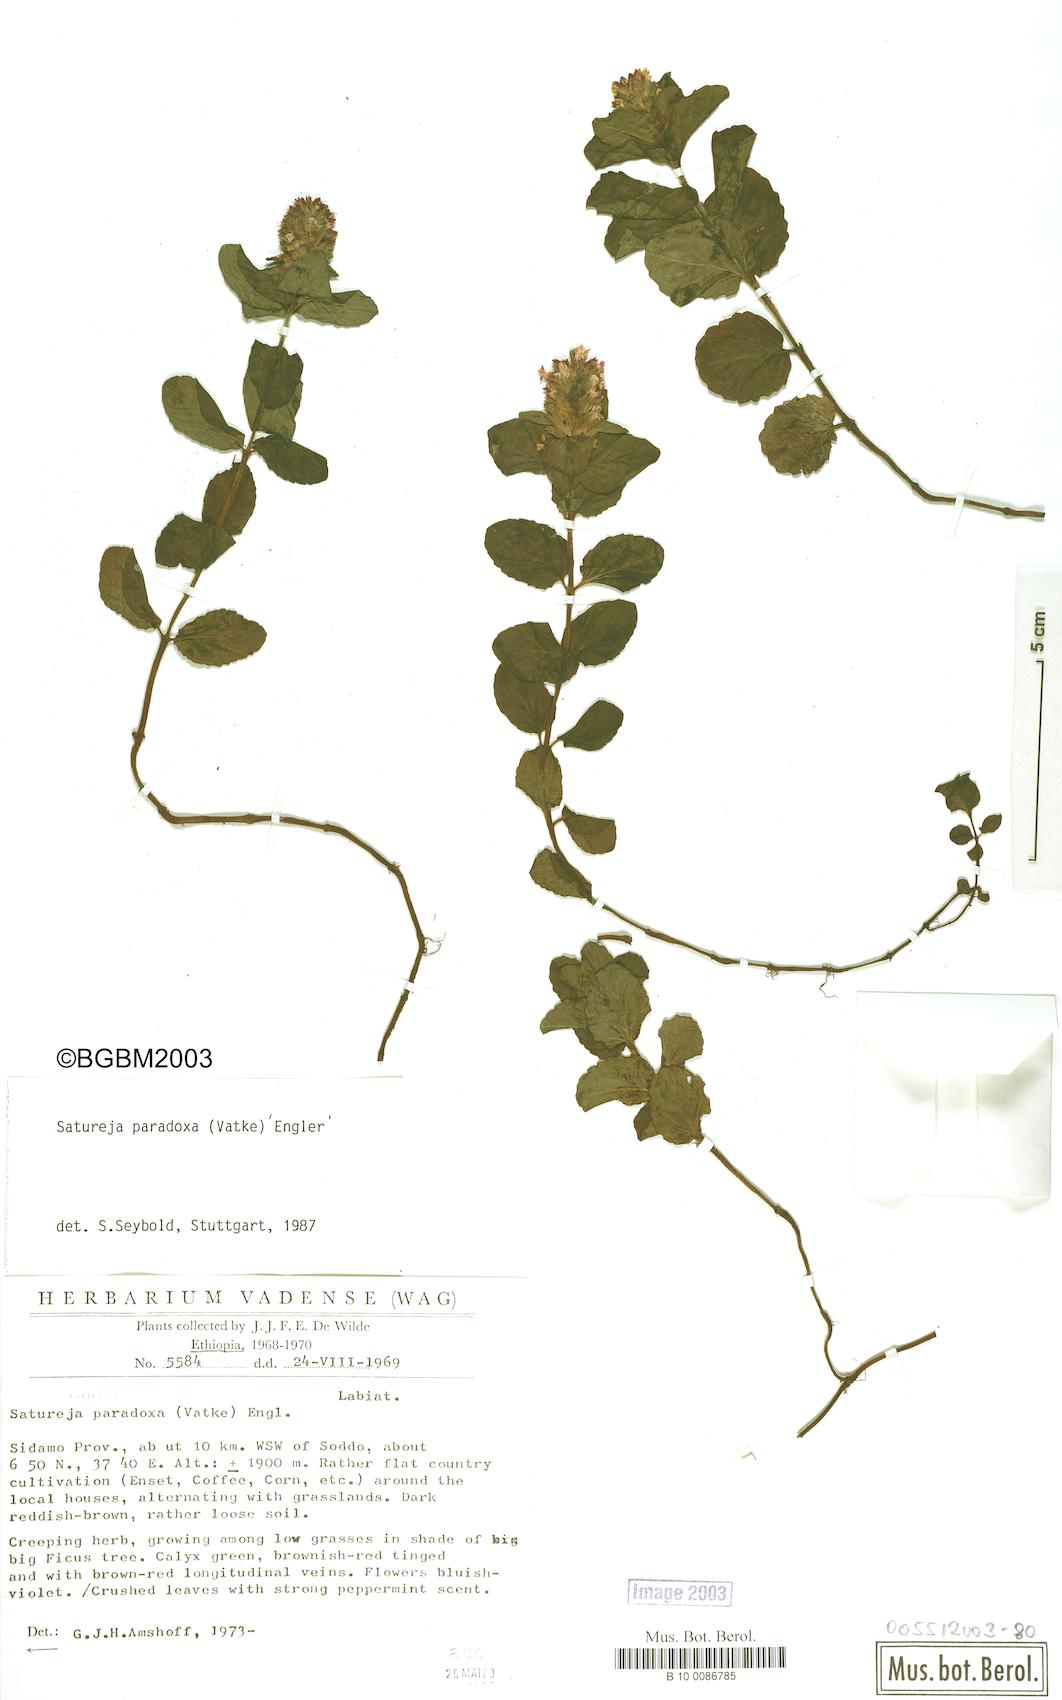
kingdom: Plantae
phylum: Tracheophyta
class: Magnoliopsida
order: Lamiales
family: Lamiaceae
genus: Clinopodium
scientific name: Clinopodium paradoxum
